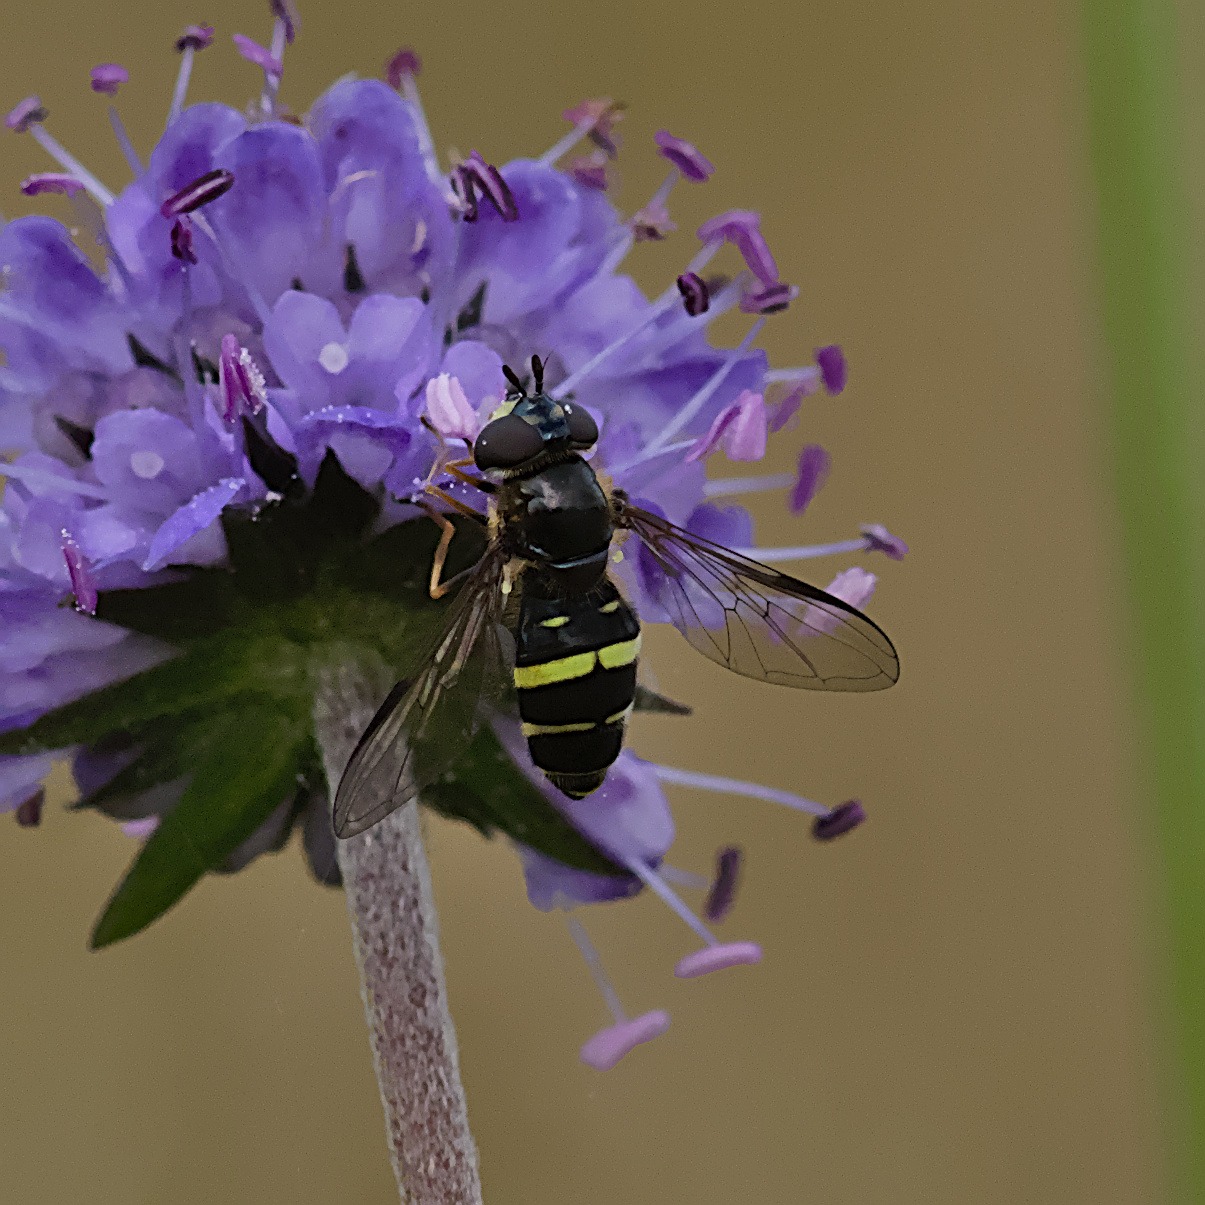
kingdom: Animalia
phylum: Arthropoda
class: Insecta
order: Diptera
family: Syrphidae
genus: Dasysyrphus
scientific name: Dasysyrphus tricinctus
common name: Bredbåndet skovsvirreflue
